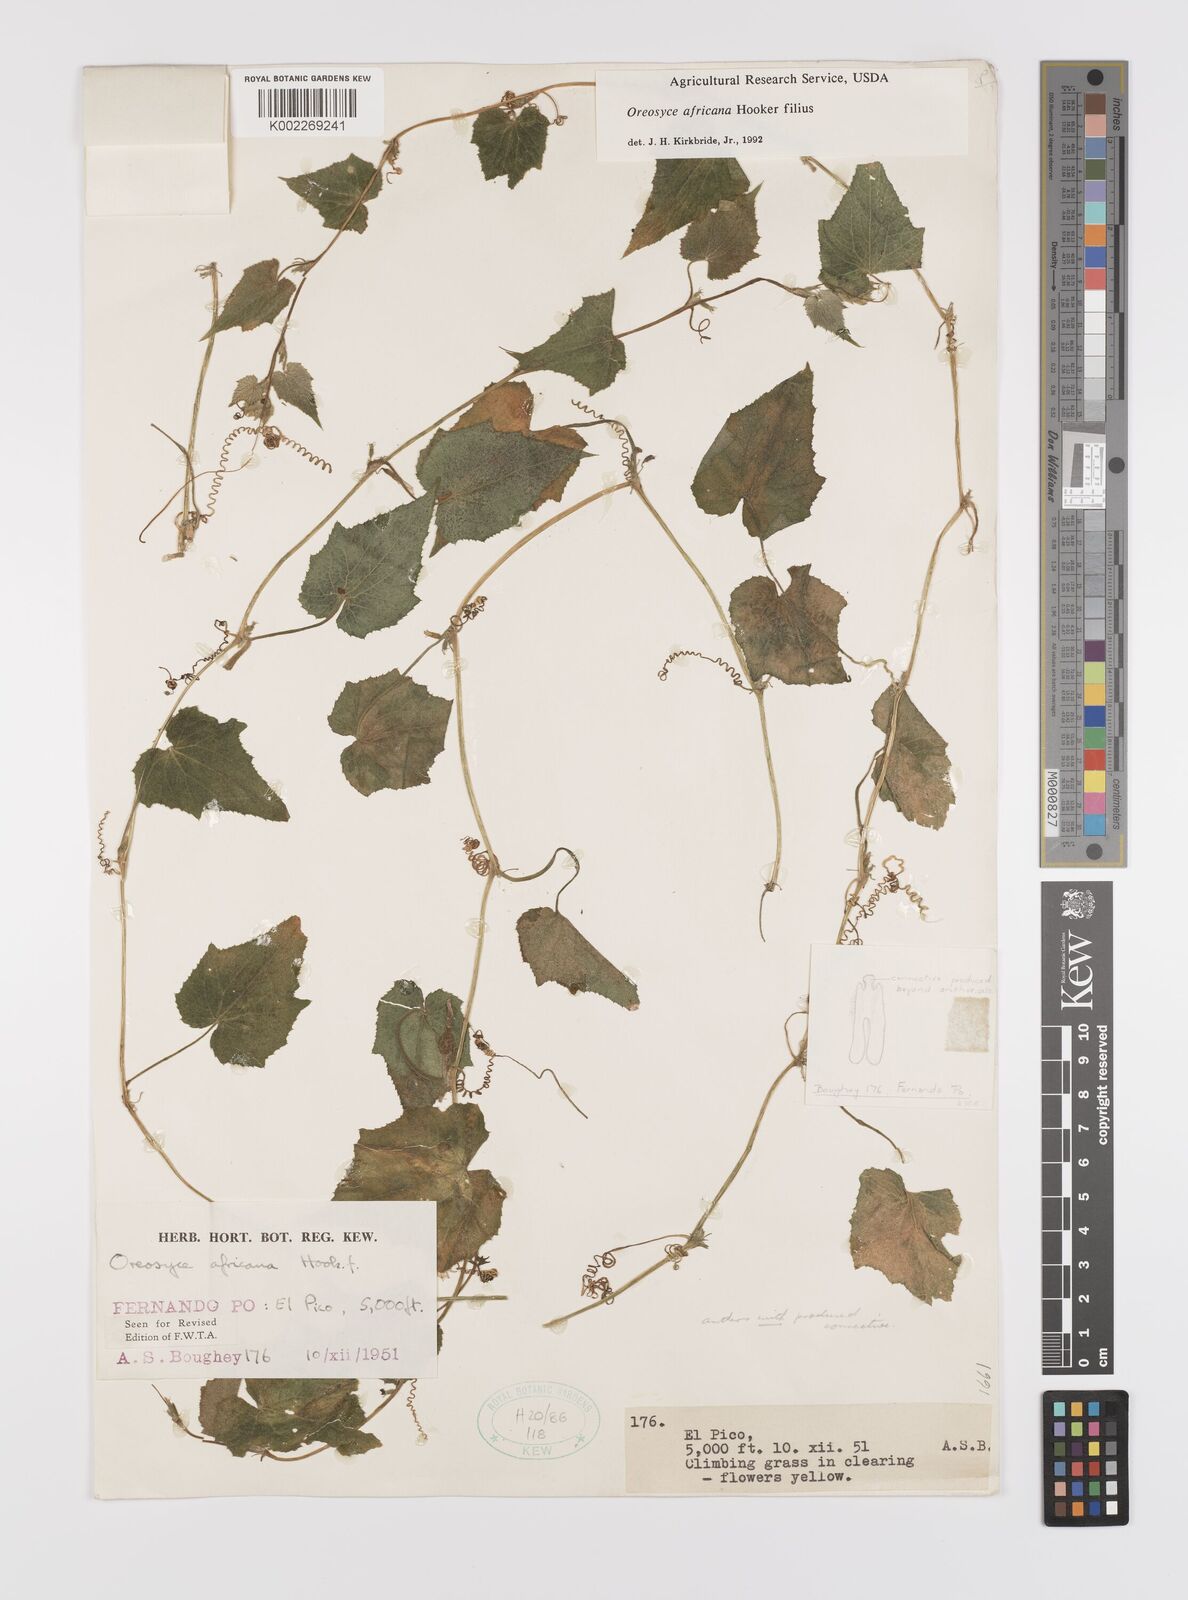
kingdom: Plantae
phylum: Tracheophyta
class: Magnoliopsida
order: Cucurbitales
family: Cucurbitaceae
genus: Cucumis
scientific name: Cucumis oreosyce
